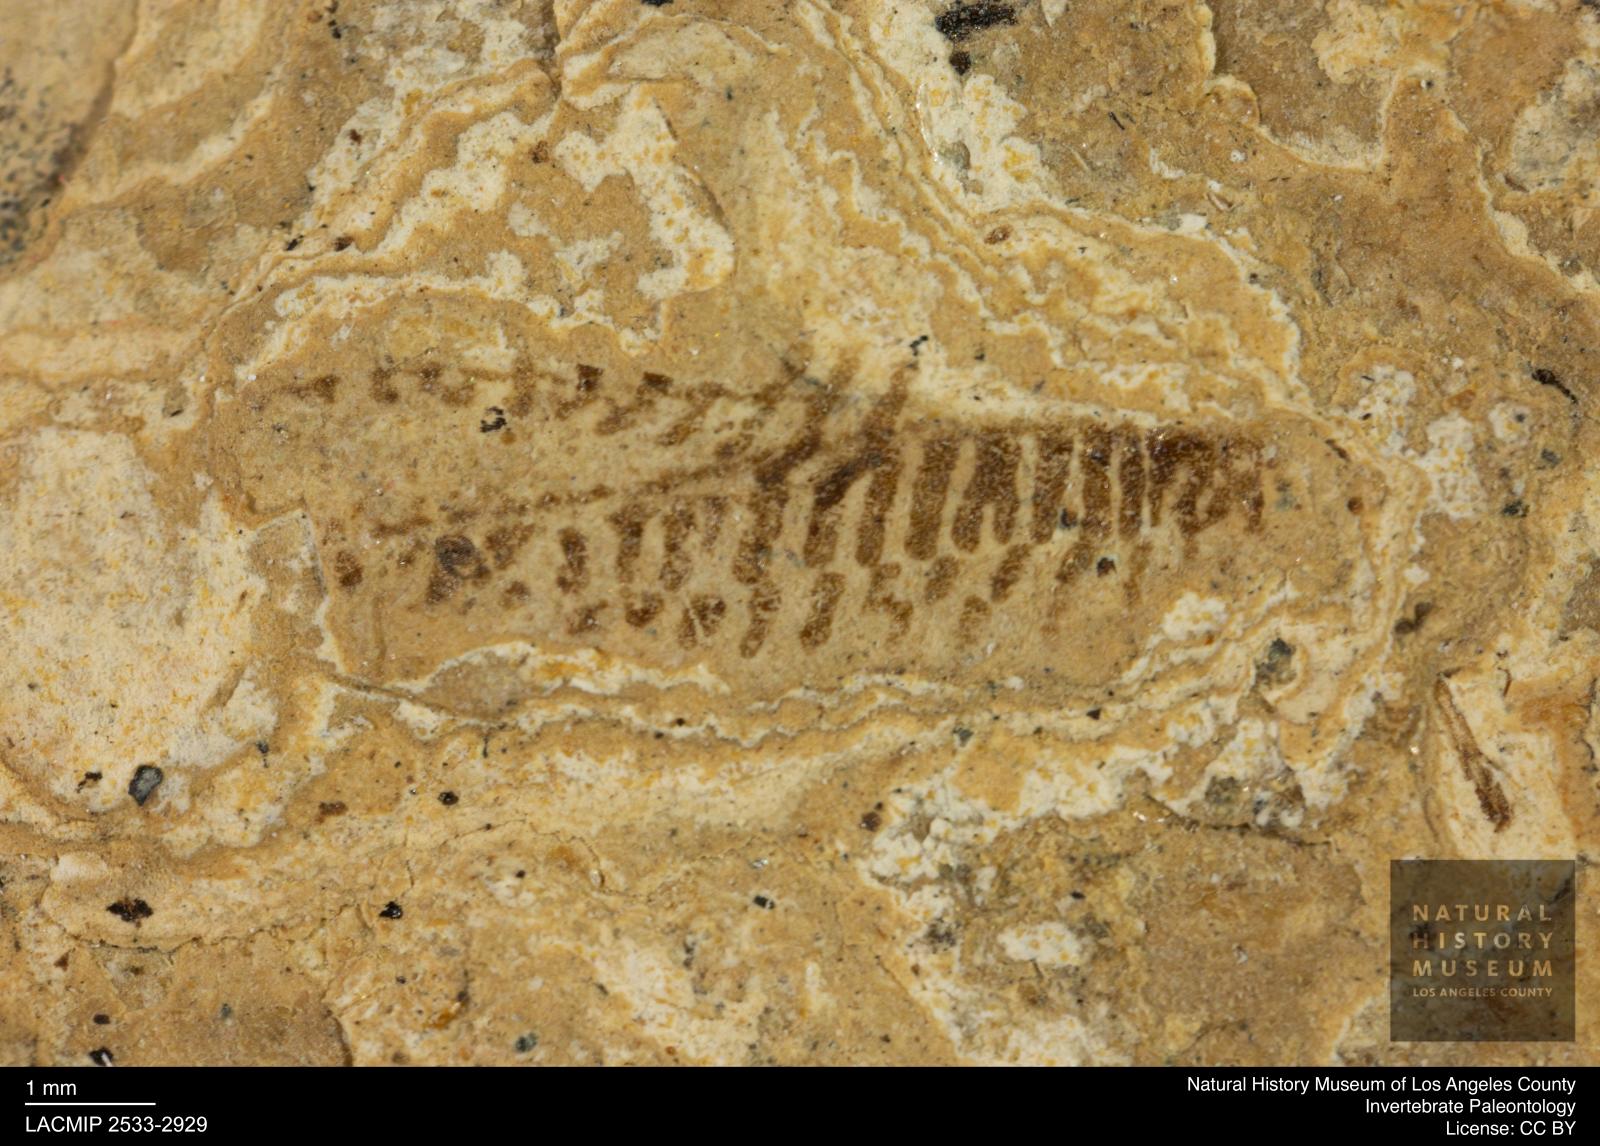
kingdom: Animalia
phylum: Arthropoda
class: Insecta
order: Hemiptera
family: Corixidae
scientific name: Corixidae
